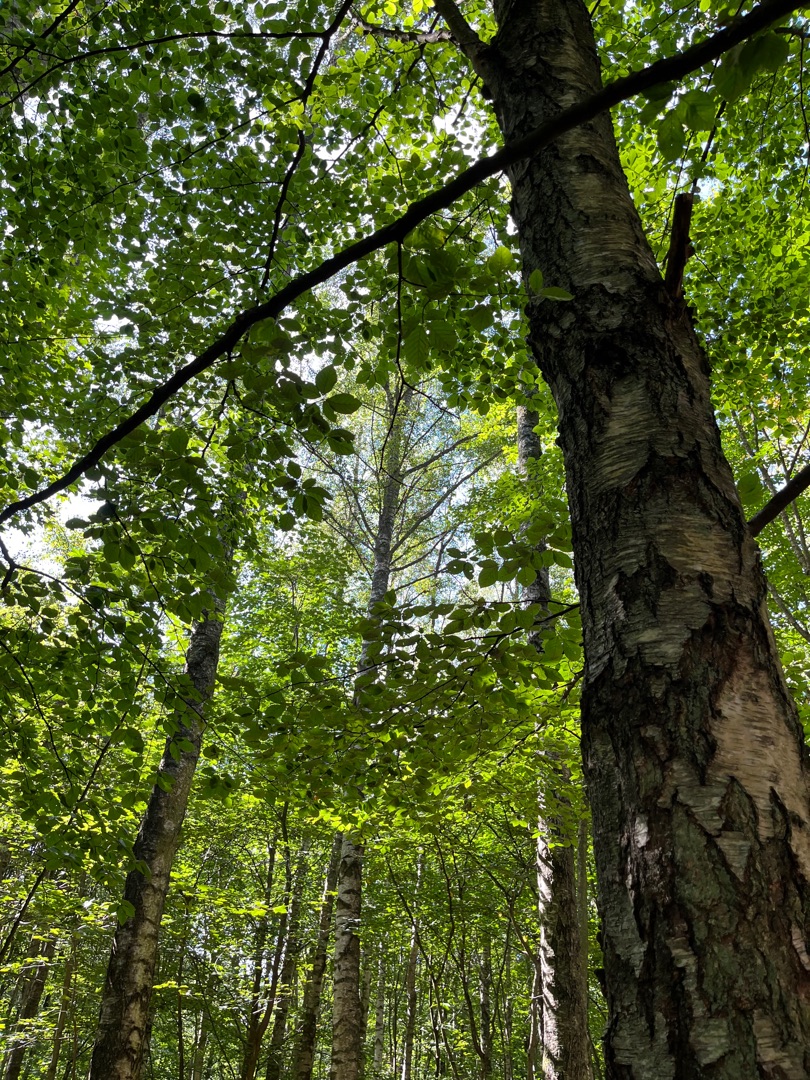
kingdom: Plantae
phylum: Tracheophyta
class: Magnoliopsida
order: Fagales
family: Betulaceae
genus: Betula
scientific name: Betula pendula
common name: Vorte-birk
